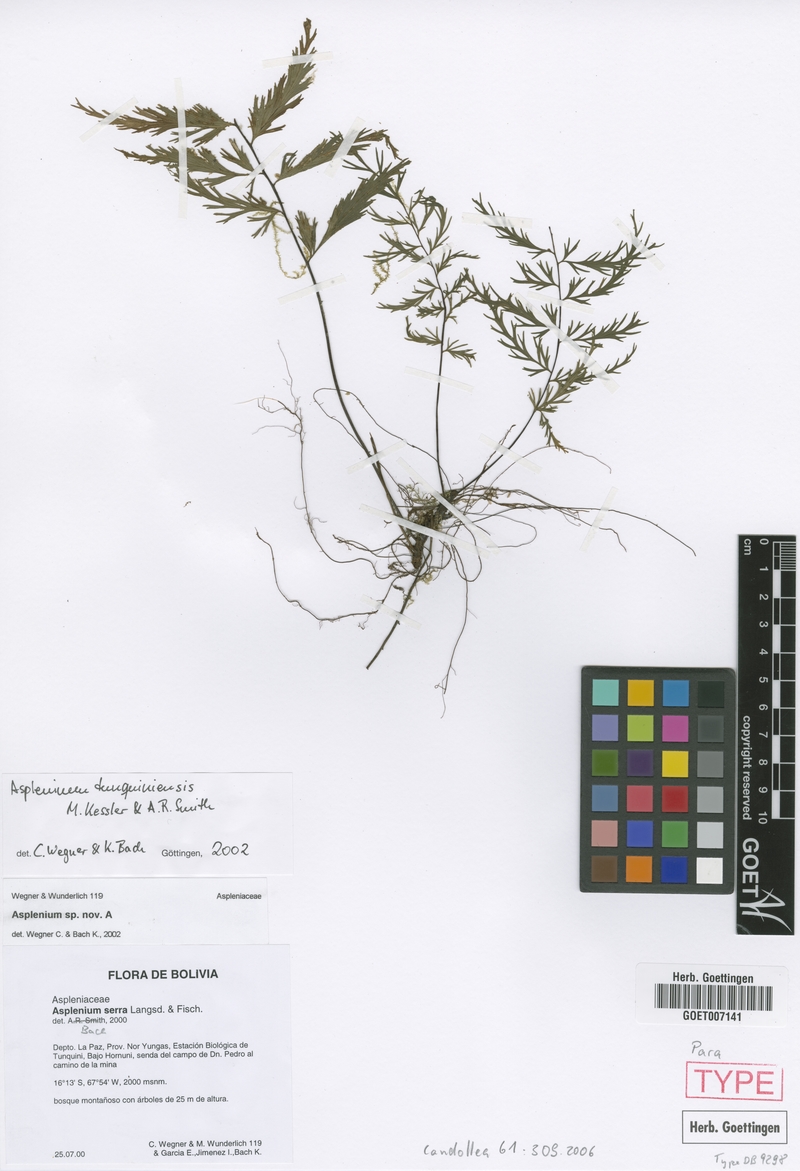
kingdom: Plantae
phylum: Tracheophyta
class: Polypodiopsida
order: Polypodiales
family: Aspleniaceae
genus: Asplenium
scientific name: Asplenium tunquiniense
